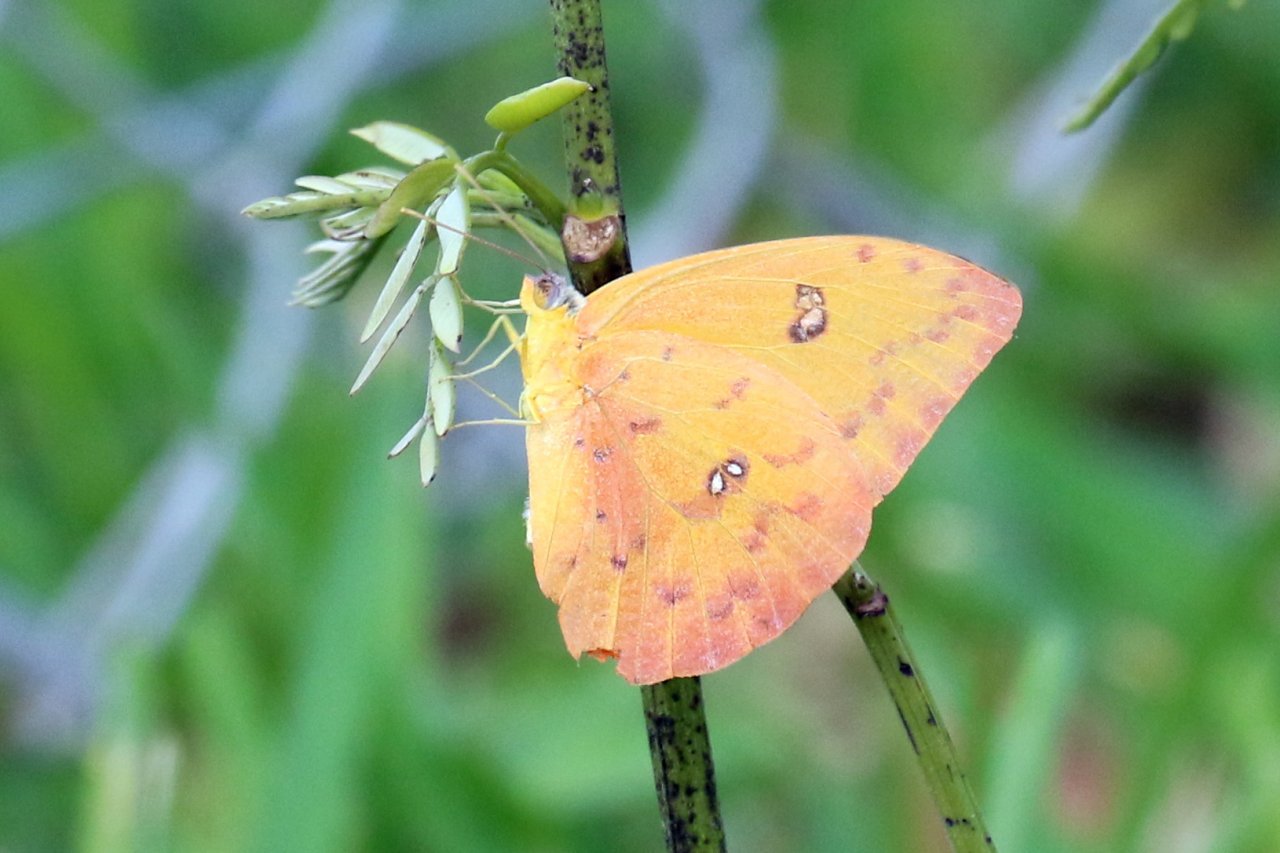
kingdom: Animalia
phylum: Arthropoda
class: Insecta
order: Lepidoptera
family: Pieridae
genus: Phoebis
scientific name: Phoebis philea
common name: Orange-barred Sulphur
